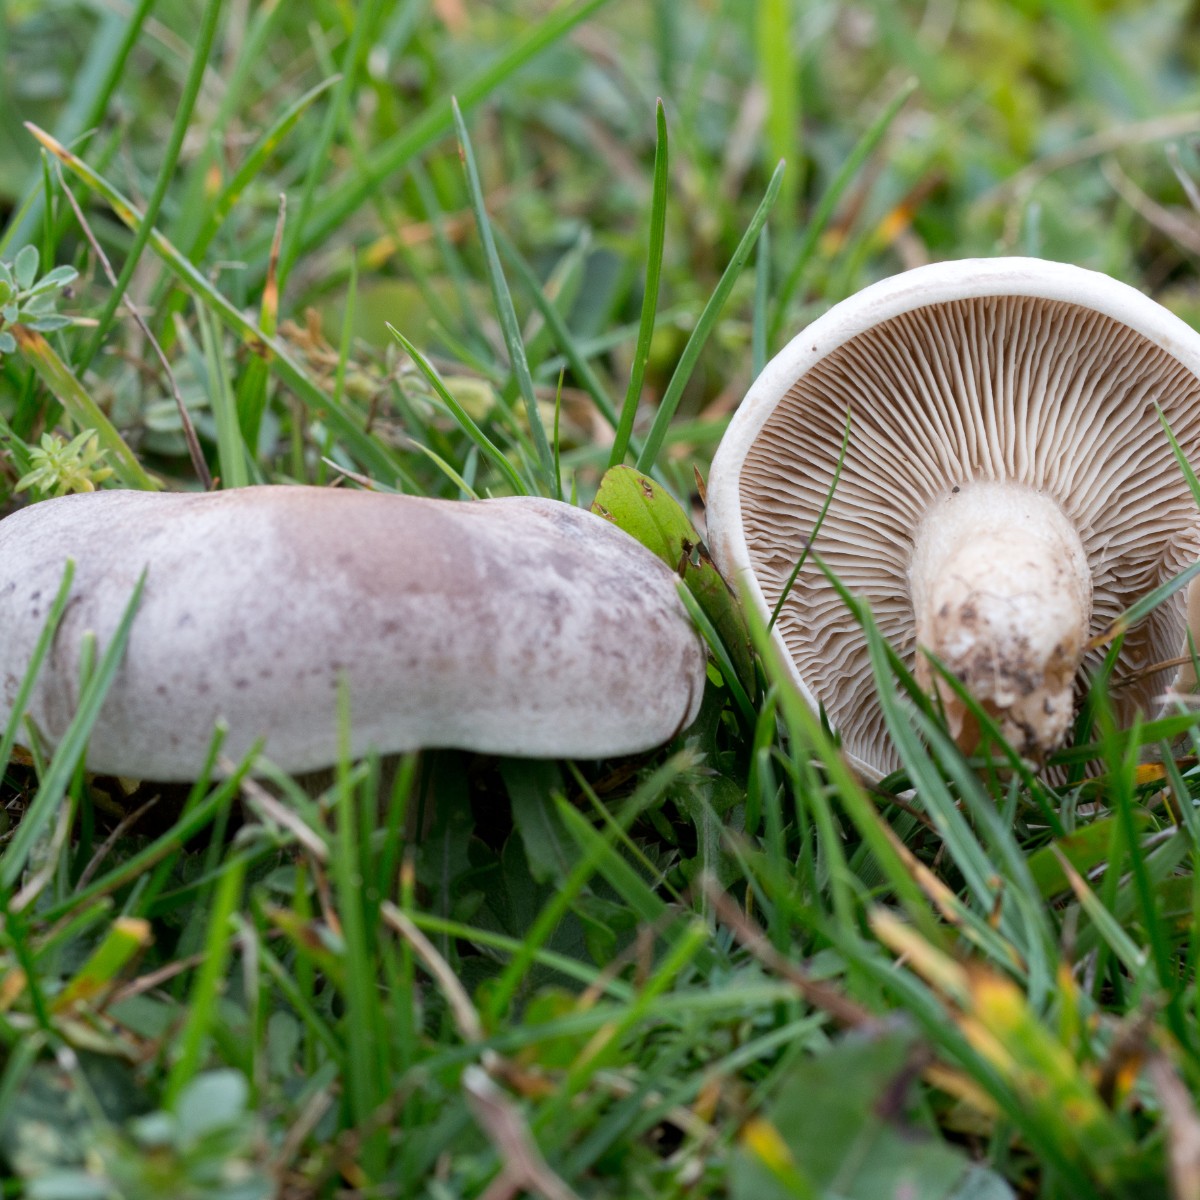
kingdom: Fungi
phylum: Basidiomycota
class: Agaricomycetes
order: Agaricales
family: Tricholomataceae
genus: Lepista
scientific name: Lepista panaeolus
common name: marmoreret hekseringshat
